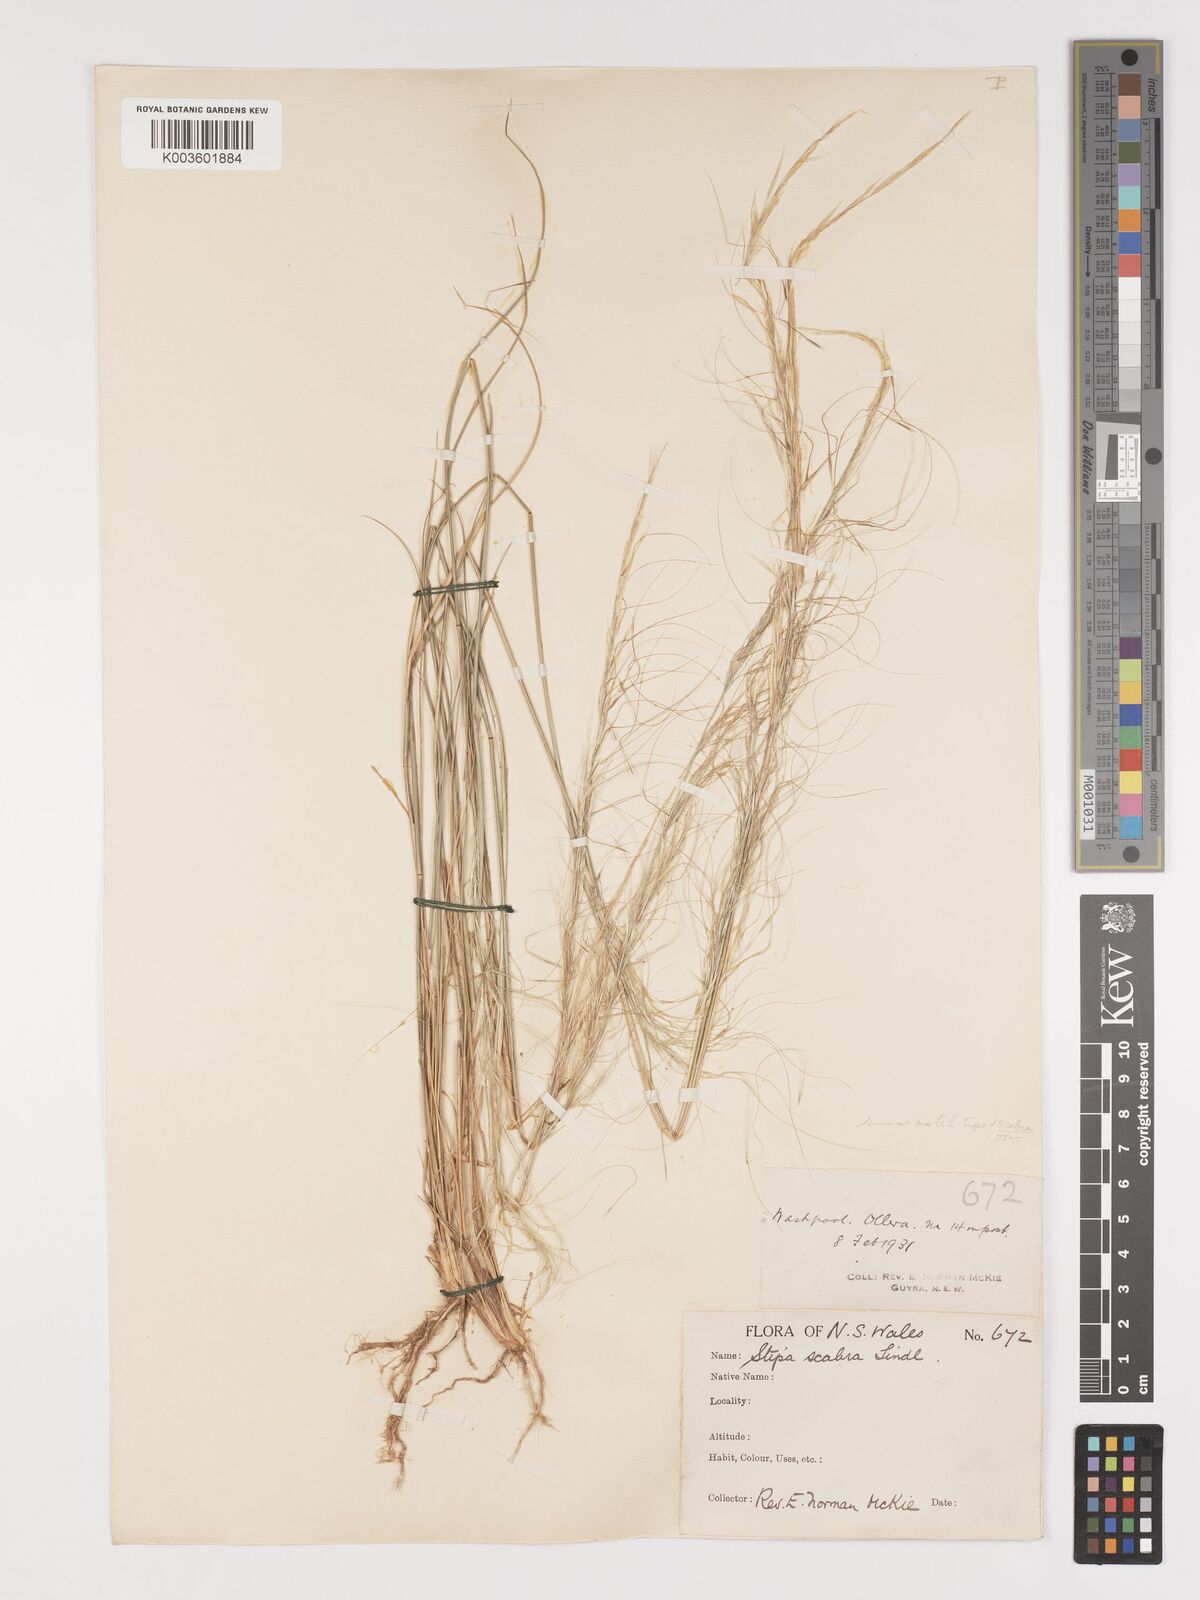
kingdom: Plantae
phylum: Tracheophyta
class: Liliopsida
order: Poales
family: Poaceae
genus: Austrostipa
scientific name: Austrostipa nitida
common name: Balcarra grass
